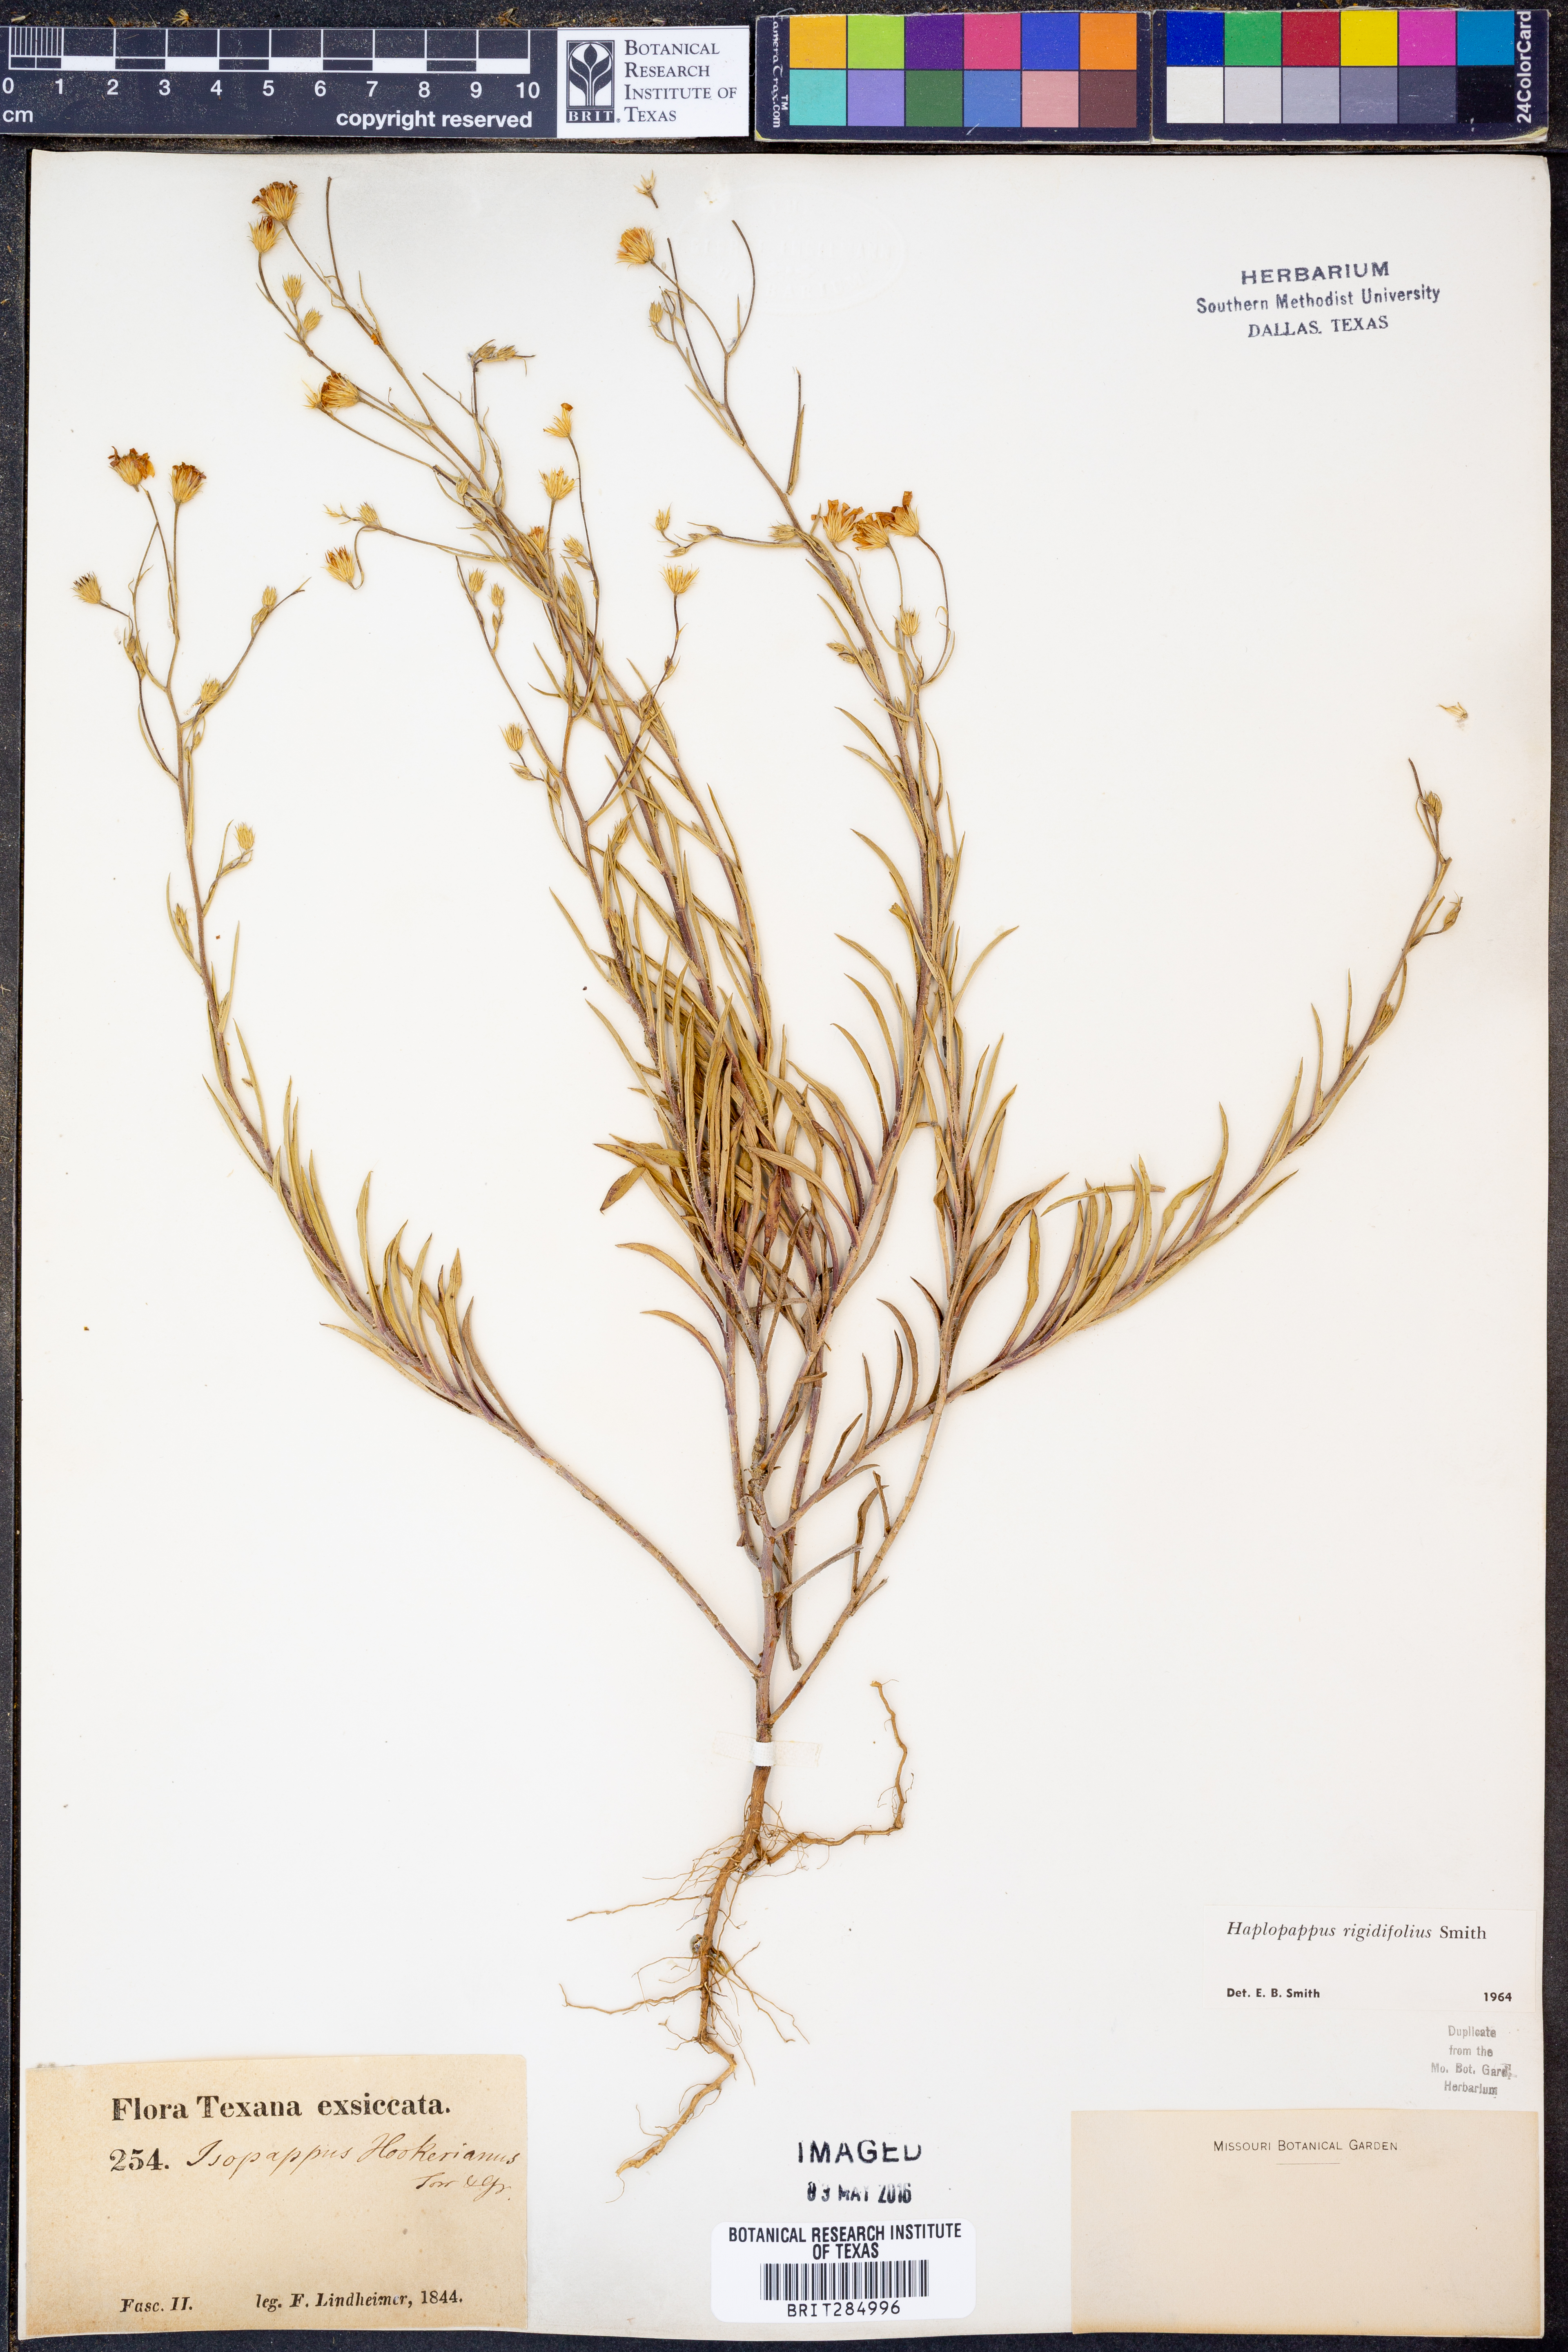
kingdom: Plantae
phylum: Tracheophyta
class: Magnoliopsida
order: Asterales
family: Asteraceae
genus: Croptilon
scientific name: Croptilon rigidifolium
